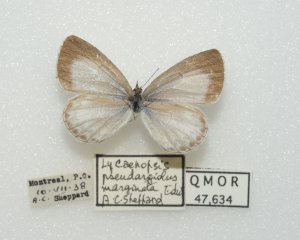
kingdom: Animalia
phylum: Arthropoda
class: Insecta
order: Lepidoptera
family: Lycaenidae
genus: Cyaniris
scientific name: Cyaniris neglecta
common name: Summer Azure
